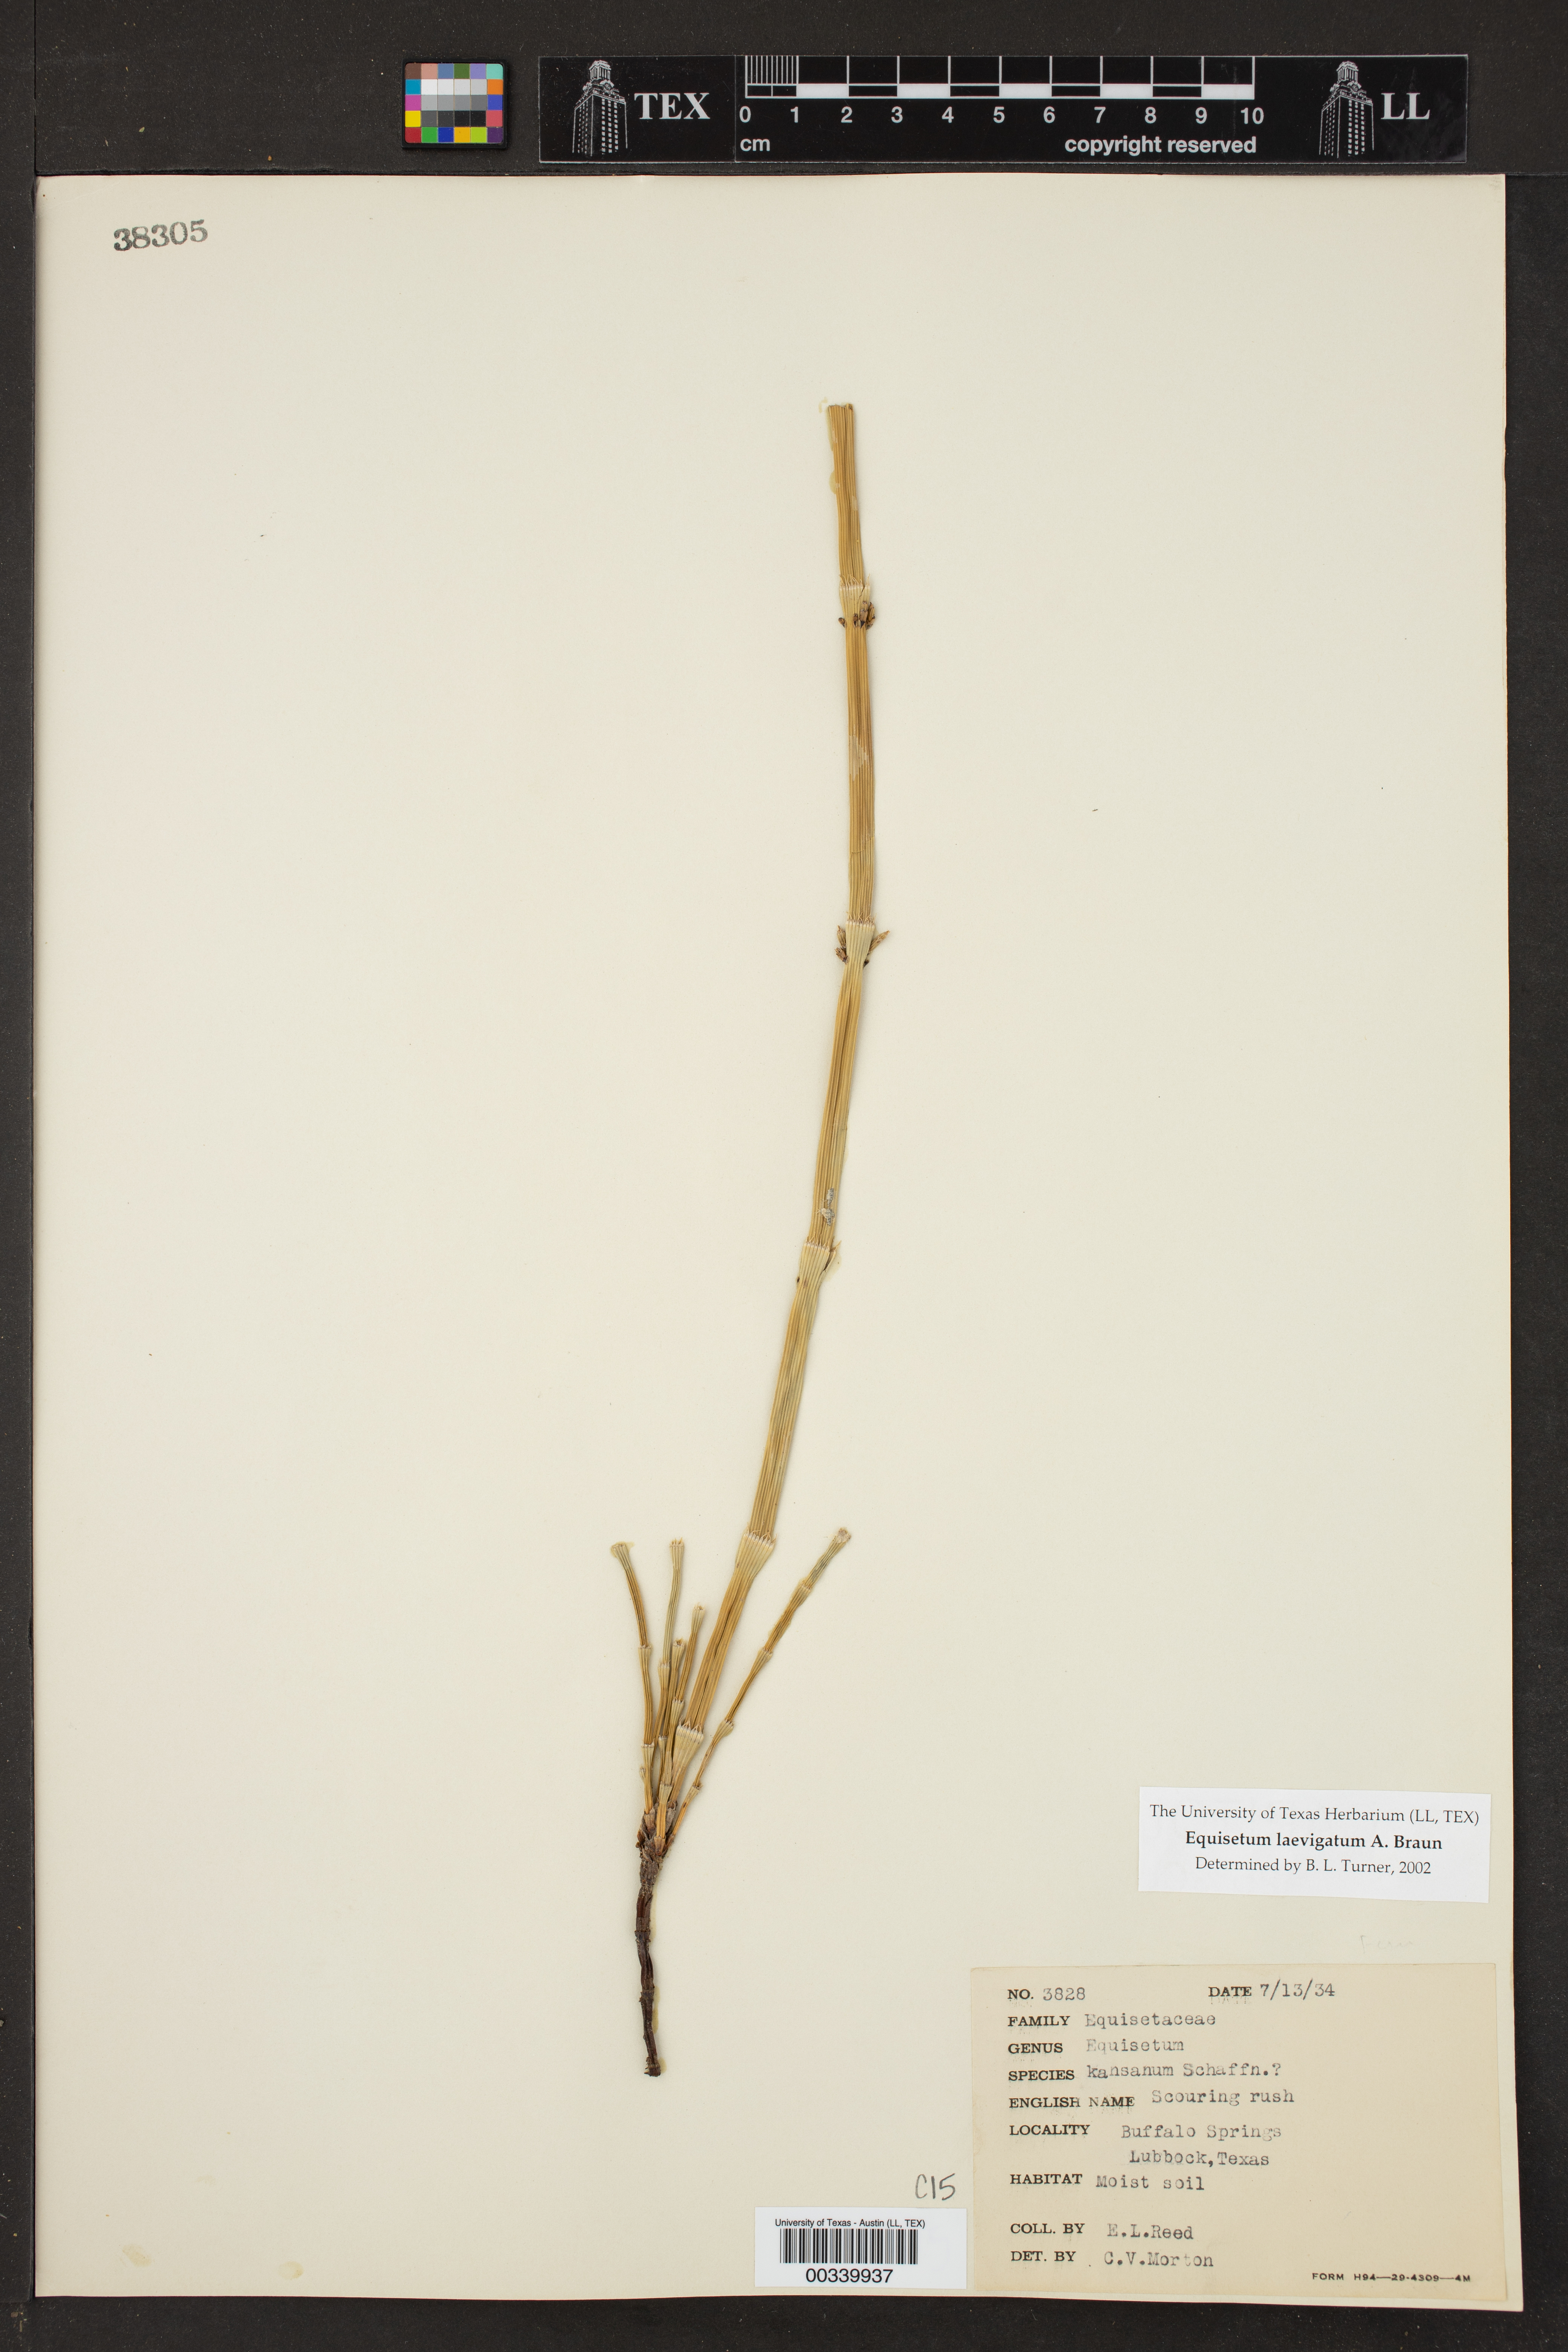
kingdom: Plantae
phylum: Tracheophyta
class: Polypodiopsida
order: Equisetales
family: Equisetaceae
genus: Equisetum
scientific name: Equisetum laevigatum
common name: Smooth scouring-rush
